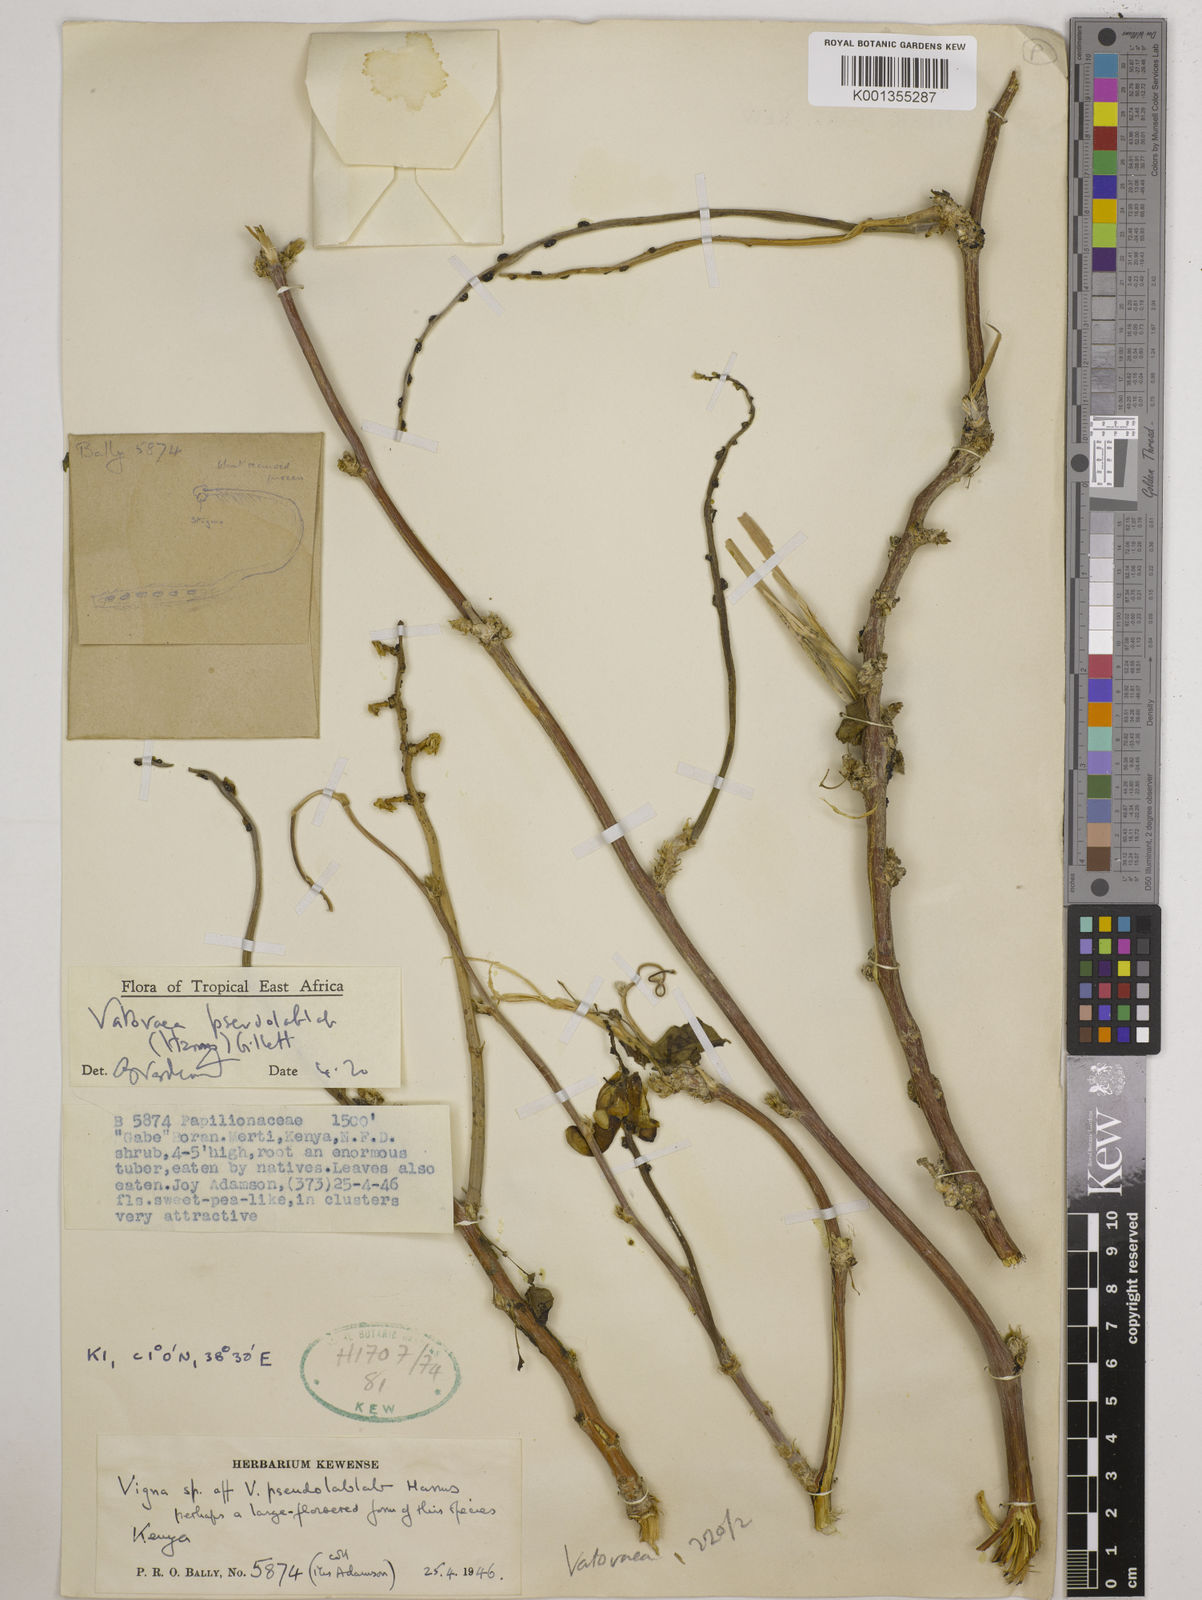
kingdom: Plantae
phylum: Tracheophyta
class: Magnoliopsida
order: Fabales
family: Fabaceae
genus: Vatovaea
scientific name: Vatovaea pseudolablab
